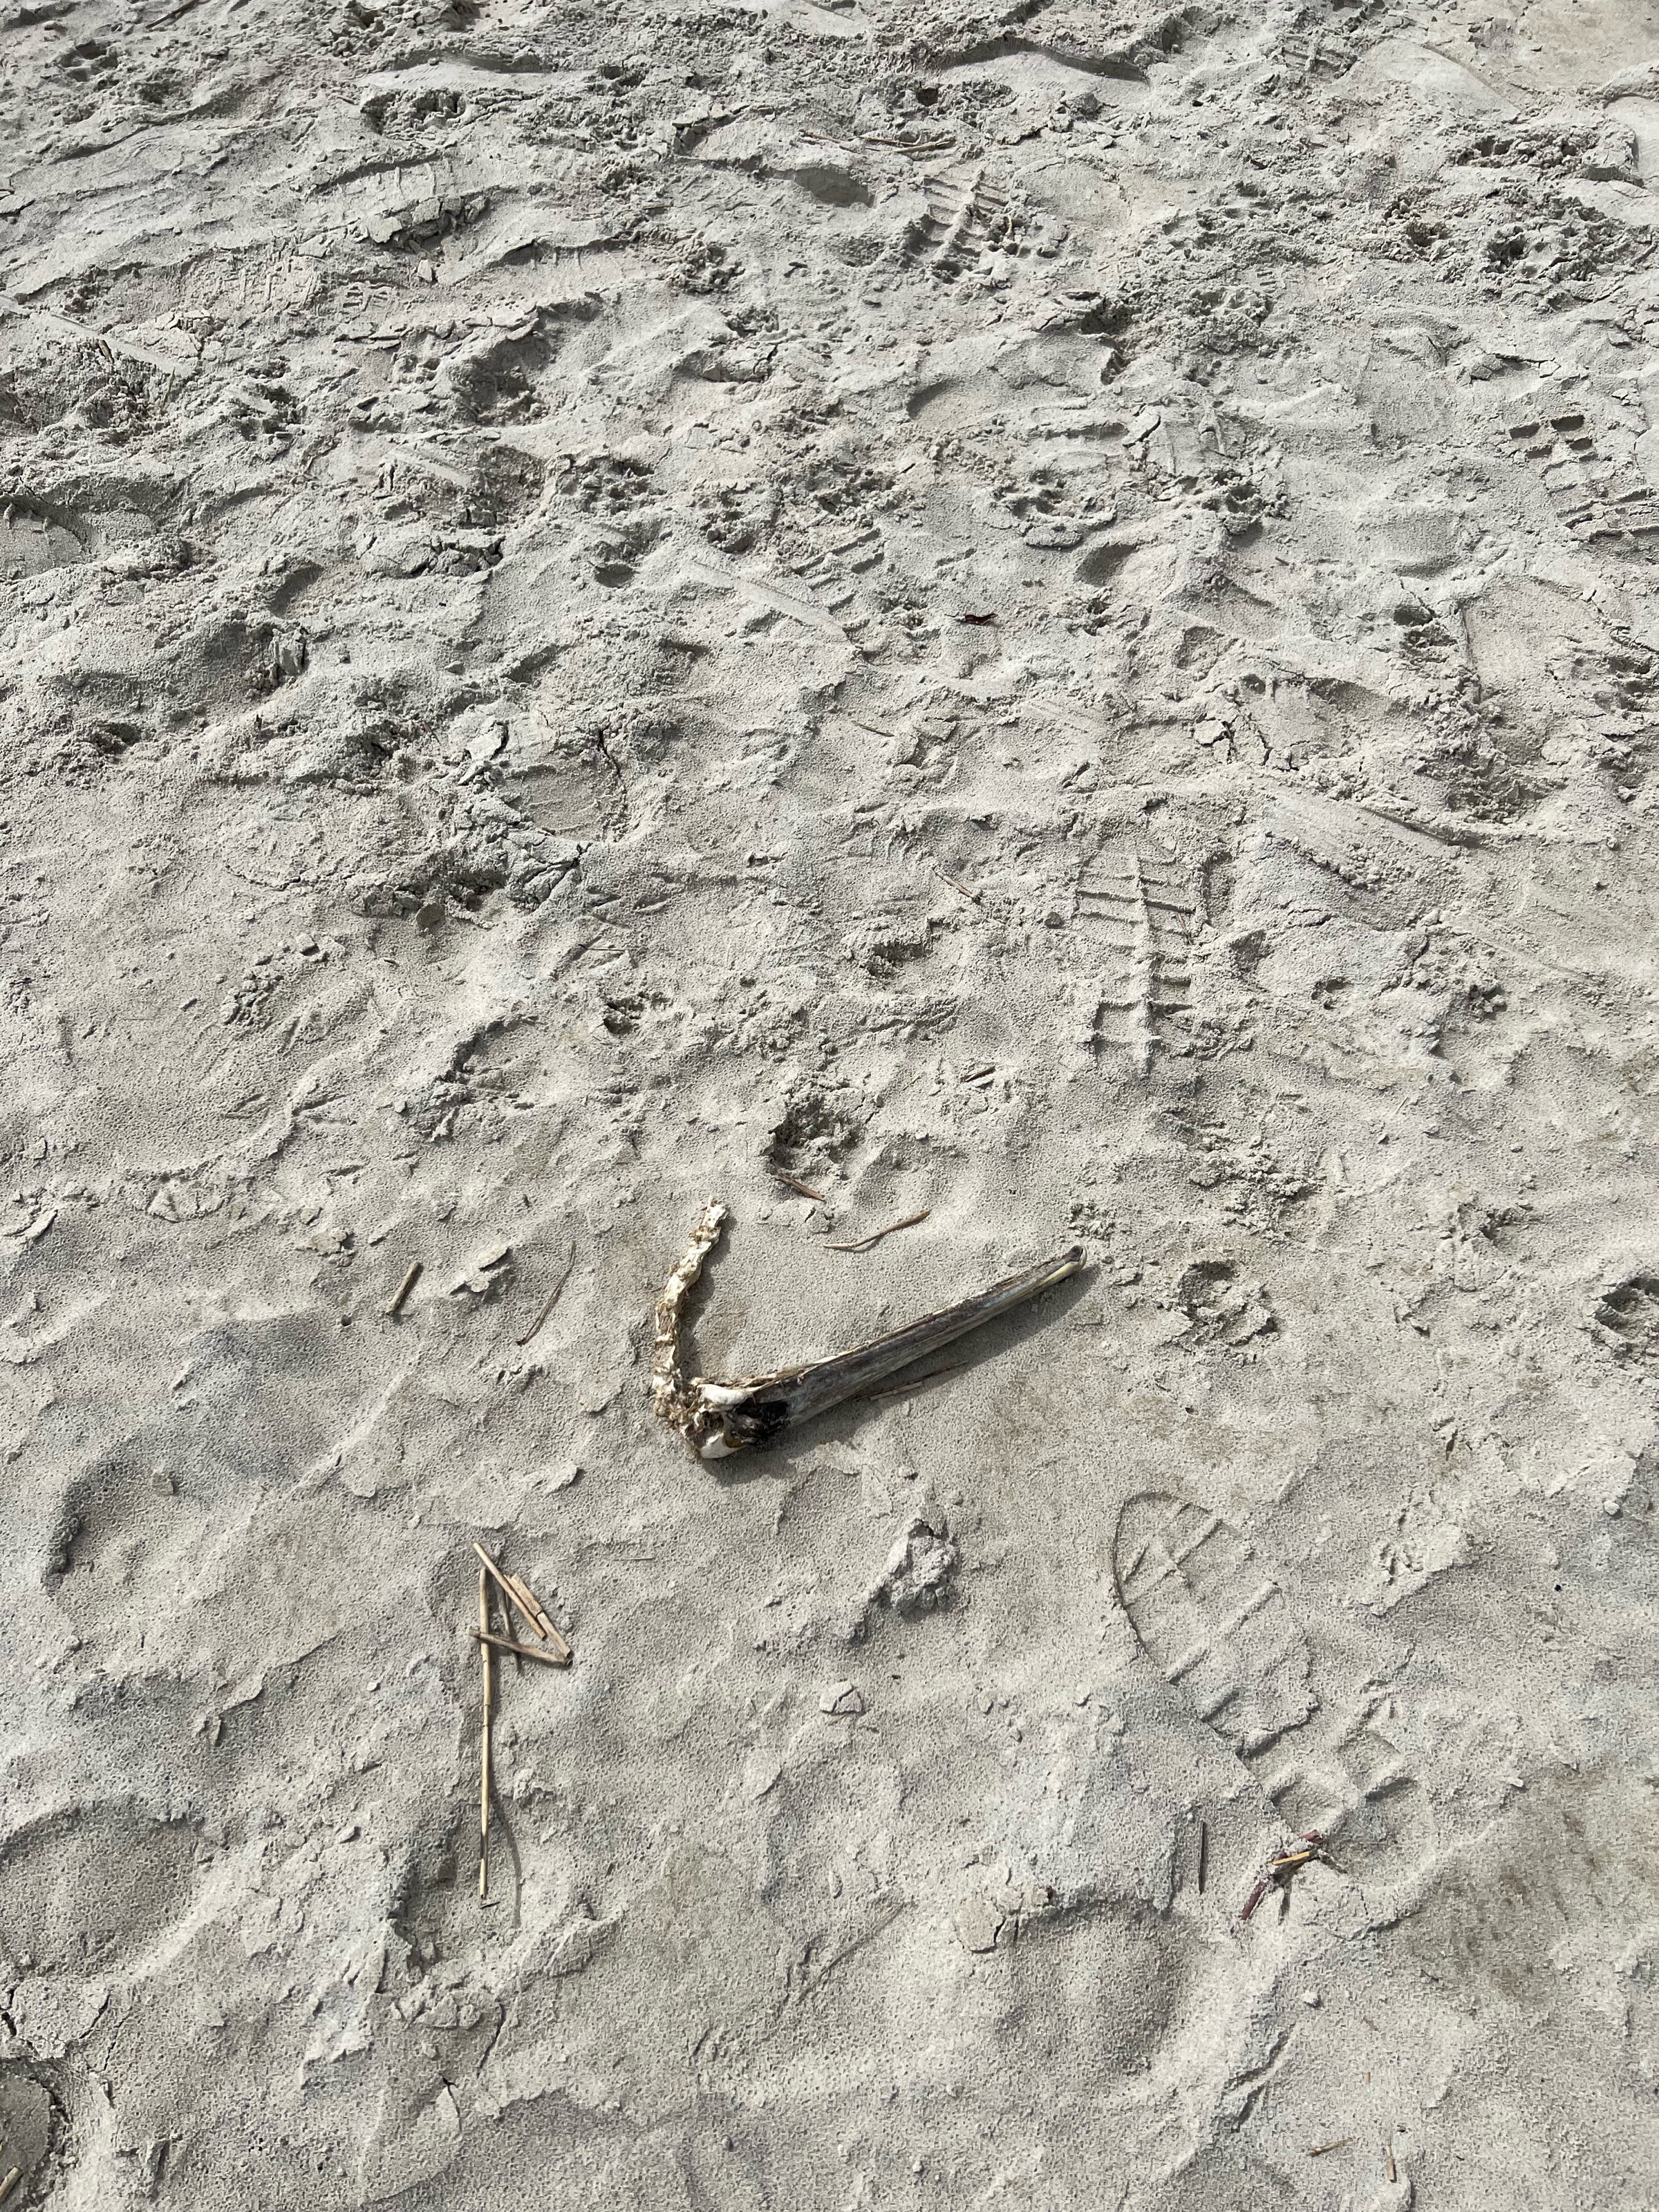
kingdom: Animalia
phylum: Chordata
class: Aves
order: Pelecaniformes
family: Pelecanidae
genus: Pelecanus
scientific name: Pelecanus occidentalis
